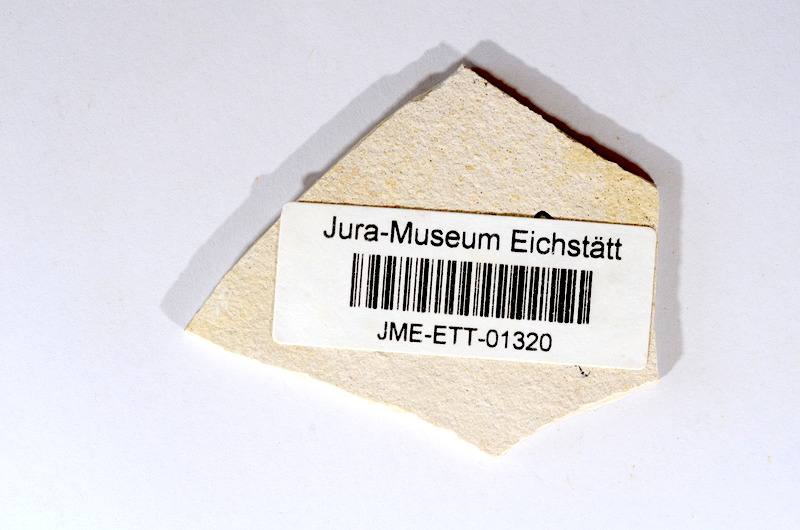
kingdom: Animalia
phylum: Chordata
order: Salmoniformes
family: Orthogonikleithridae
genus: Orthogonikleithrus
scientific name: Orthogonikleithrus hoelli
